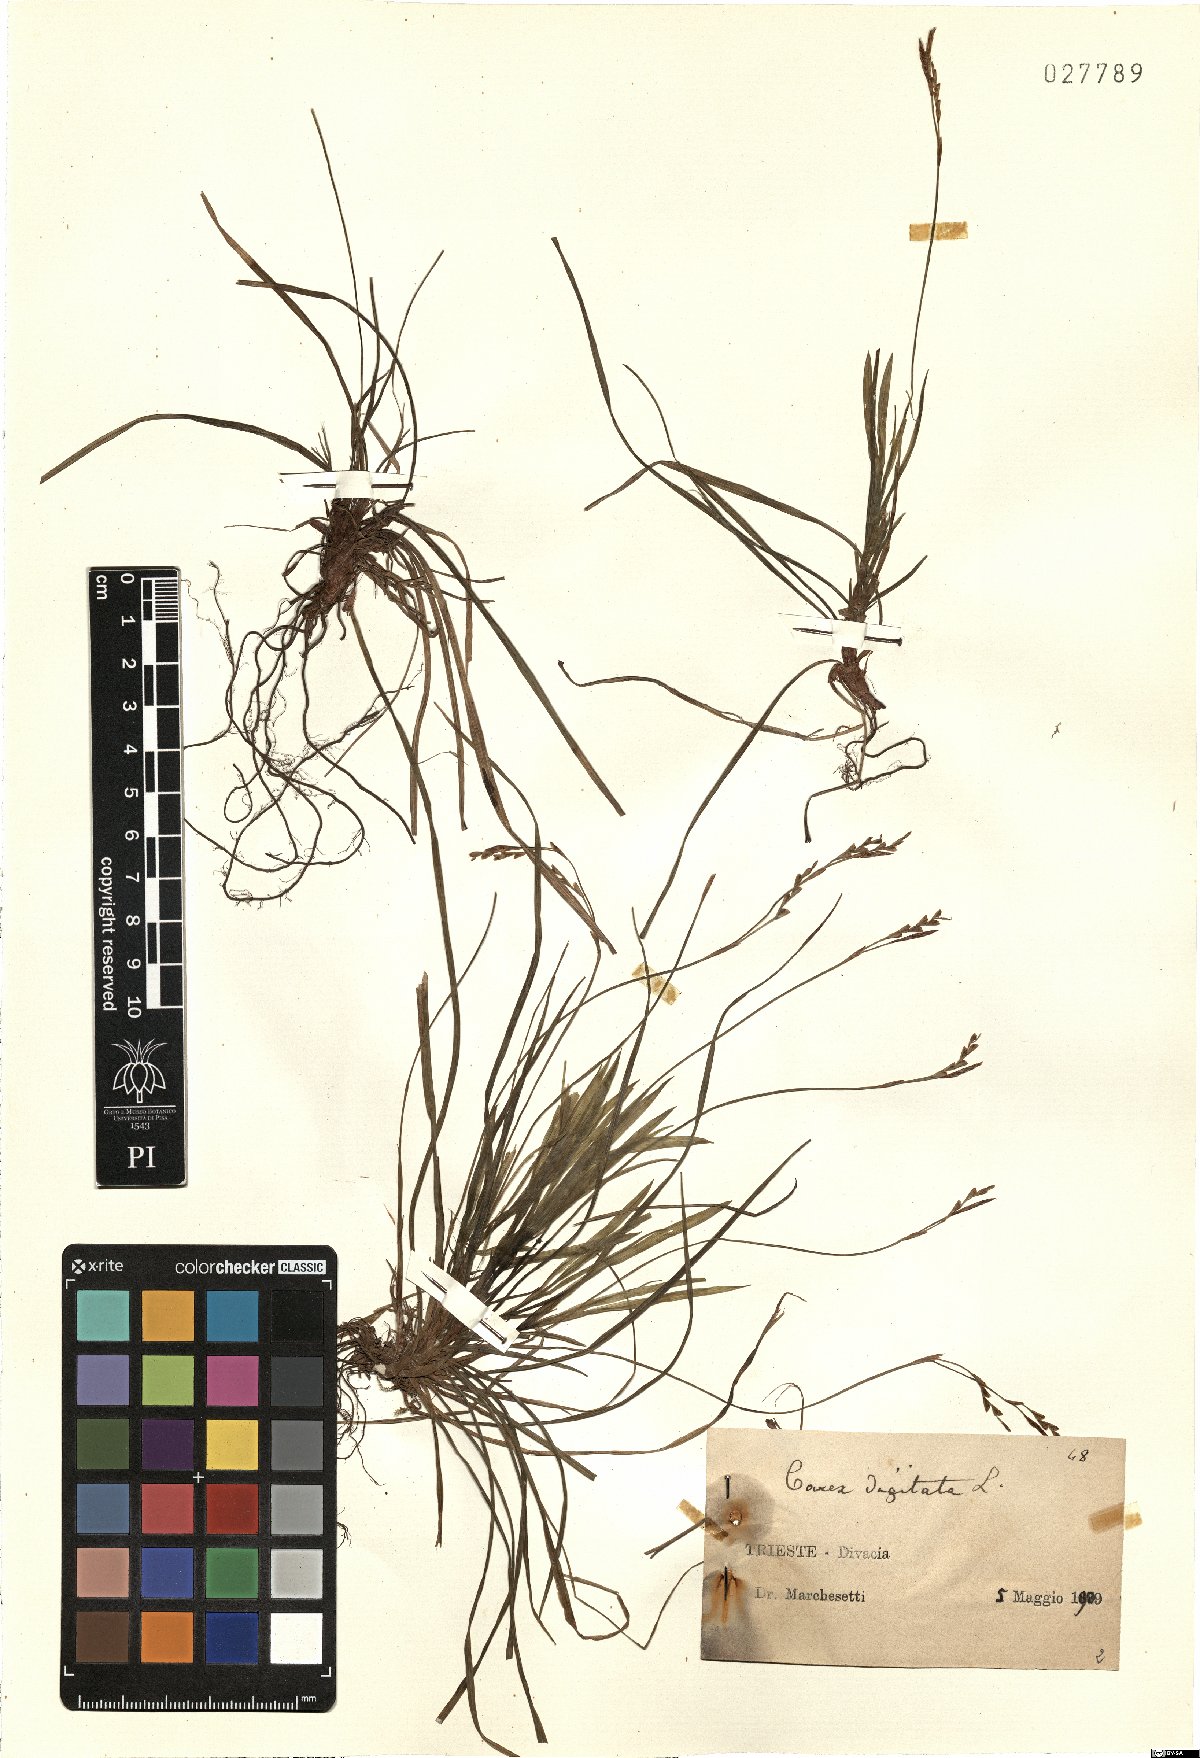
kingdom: Plantae
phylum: Tracheophyta
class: Liliopsida
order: Poales
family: Cyperaceae
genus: Carex
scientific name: Carex digitata
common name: Fingered sedge
